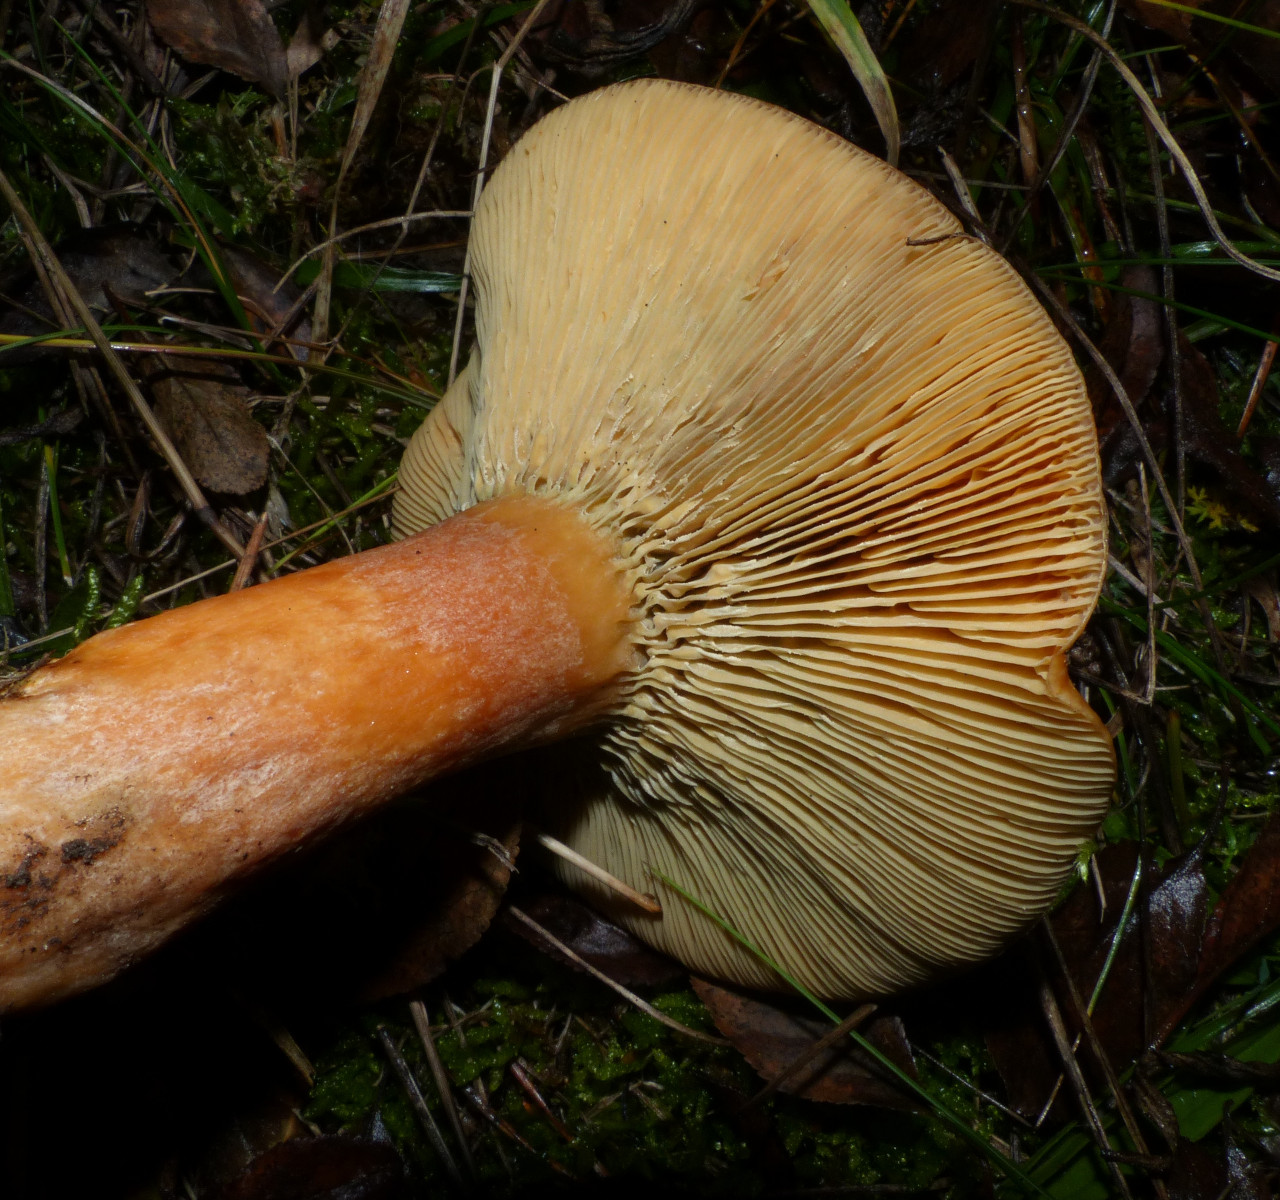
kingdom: Fungi
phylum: Basidiomycota
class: Agaricomycetes
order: Russulales
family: Russulaceae
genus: Lactarius
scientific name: Lactarius deterrimus
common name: gran-mælkehat
